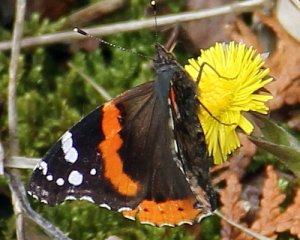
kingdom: Animalia
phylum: Arthropoda
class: Insecta
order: Lepidoptera
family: Nymphalidae
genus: Vanessa
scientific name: Vanessa atalanta
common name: Red Admiral
